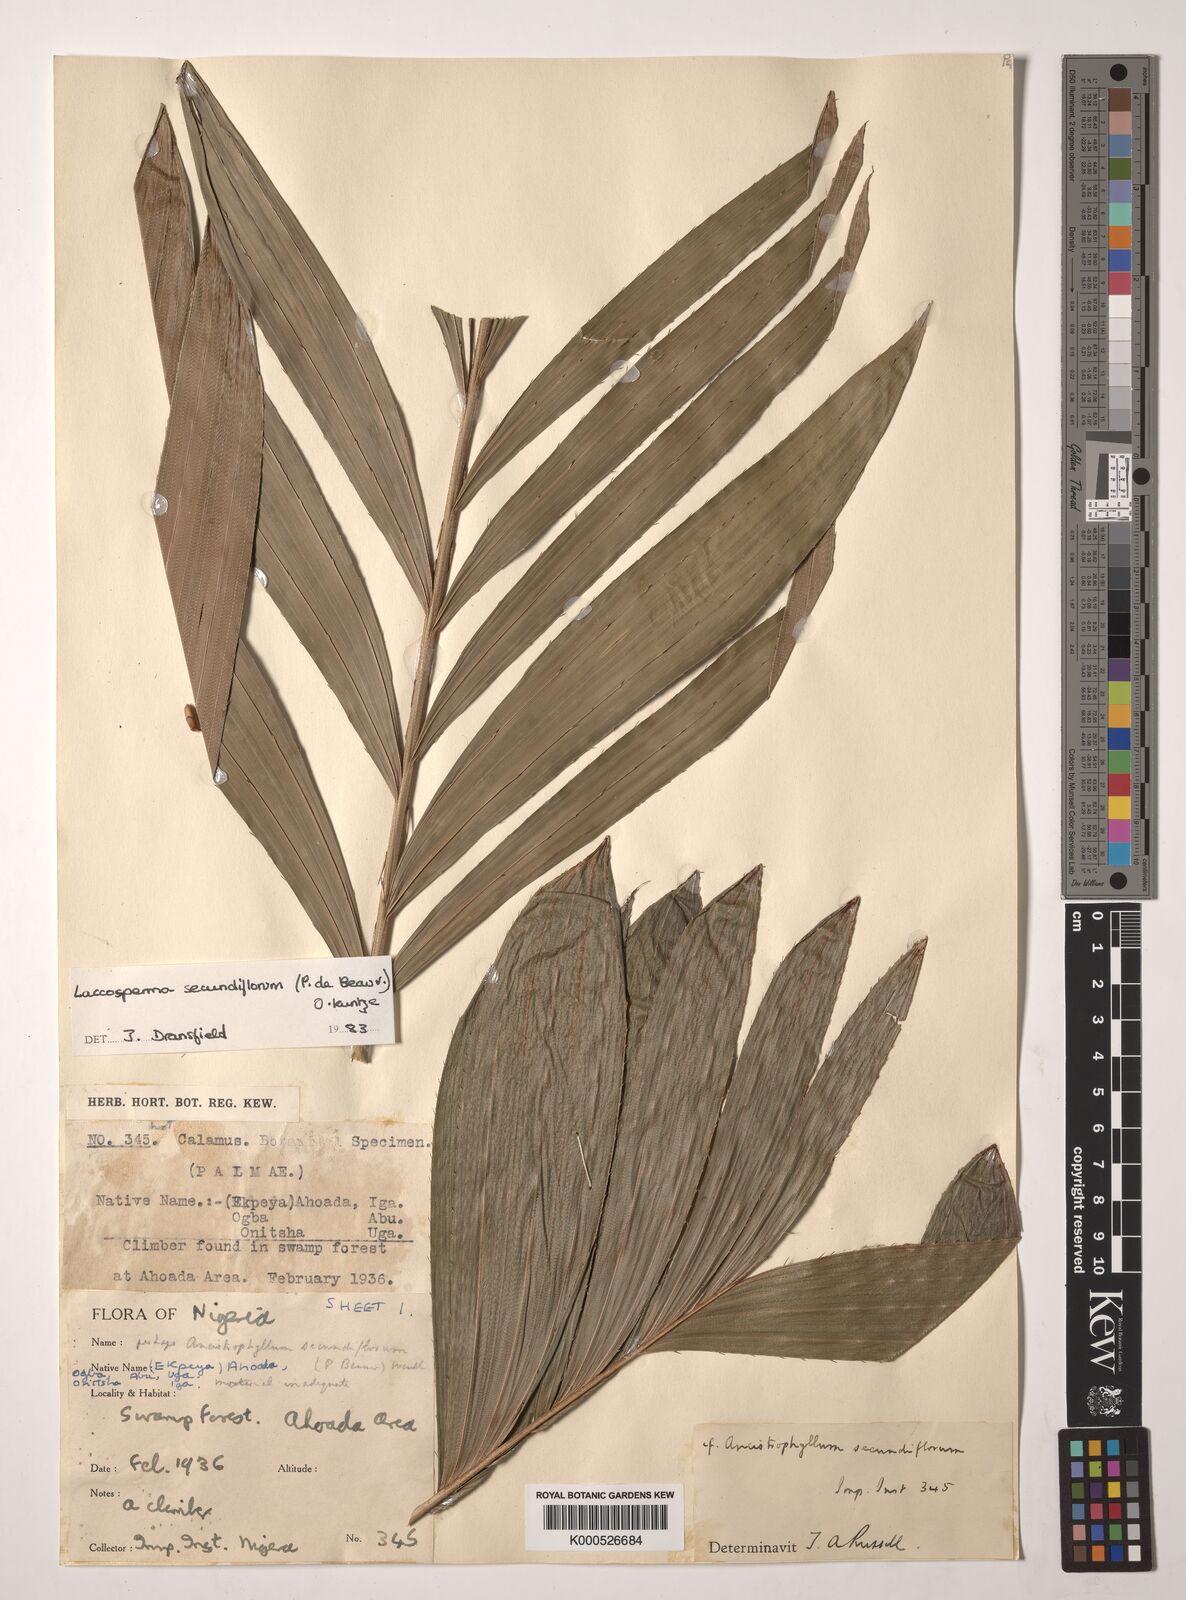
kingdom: Plantae
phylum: Tracheophyta
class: Liliopsida
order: Arecales
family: Arecaceae
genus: Laccosperma
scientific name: Laccosperma secundiflorum
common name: Rattan
